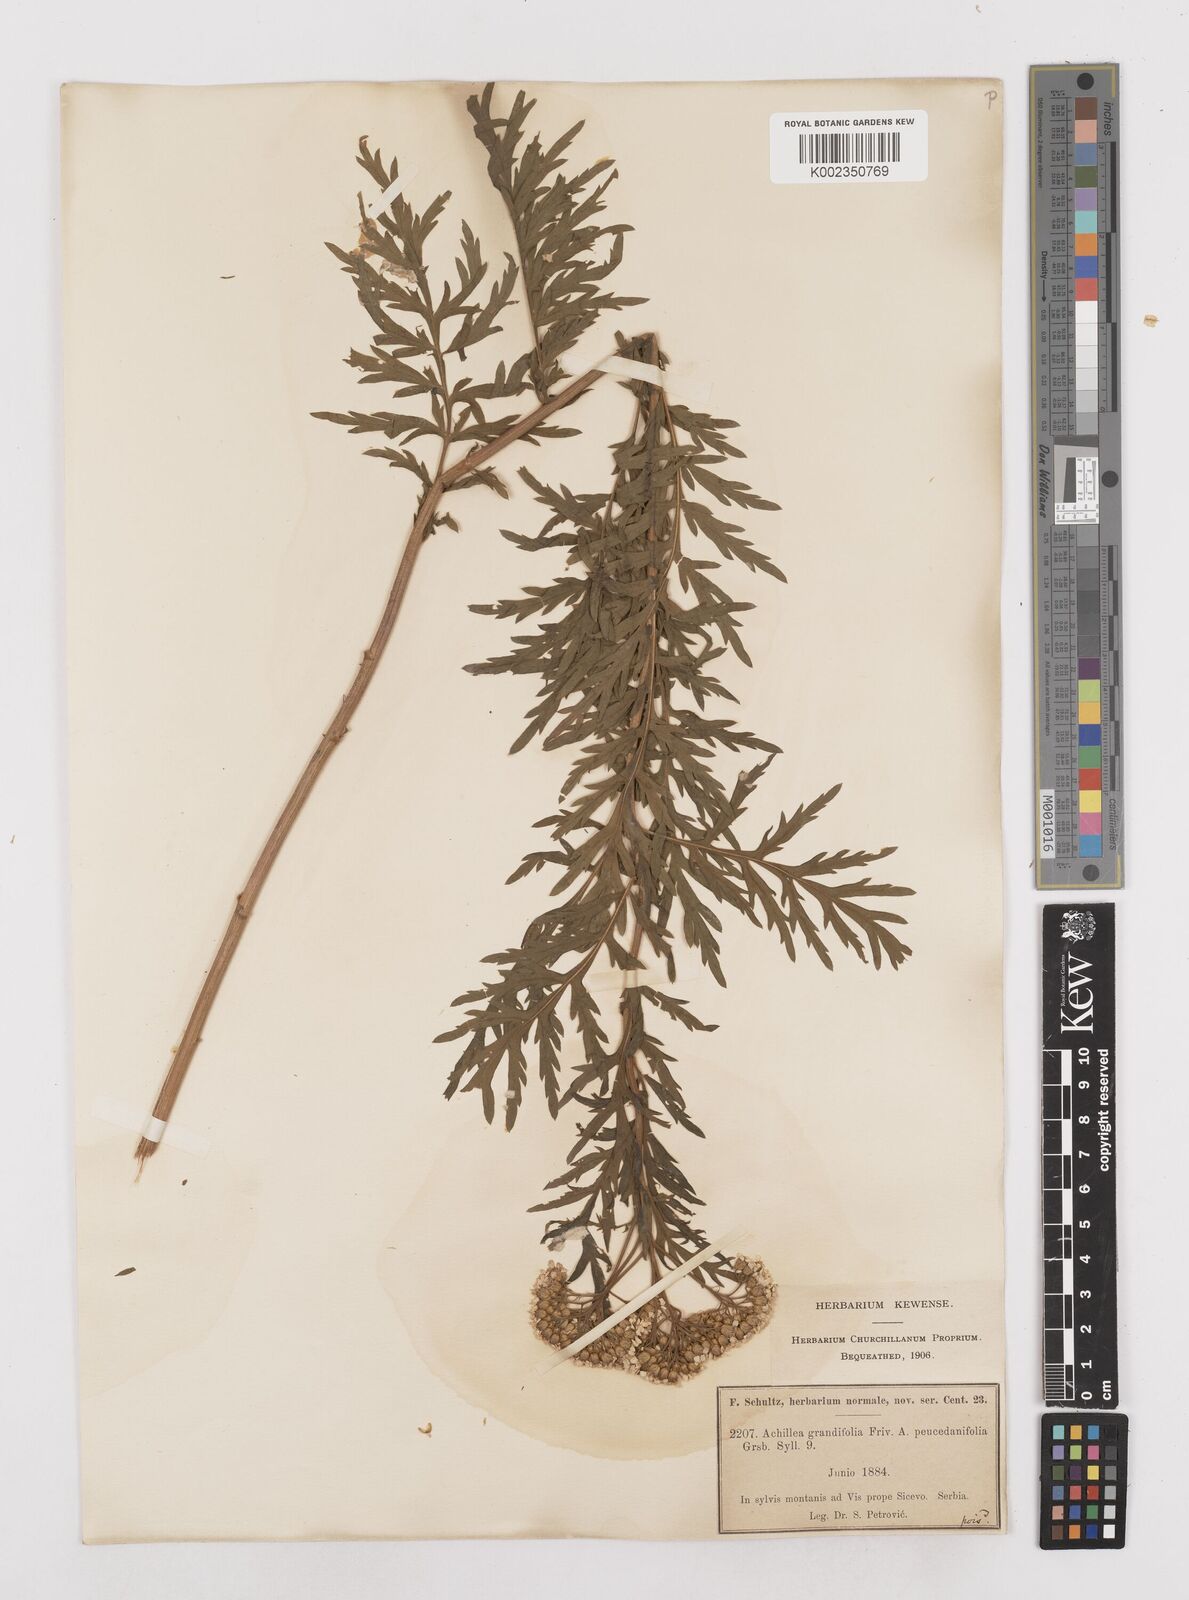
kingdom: Plantae
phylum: Tracheophyta
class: Magnoliopsida
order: Asterales
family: Asteraceae
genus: Achillea
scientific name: Achillea grandifolia
